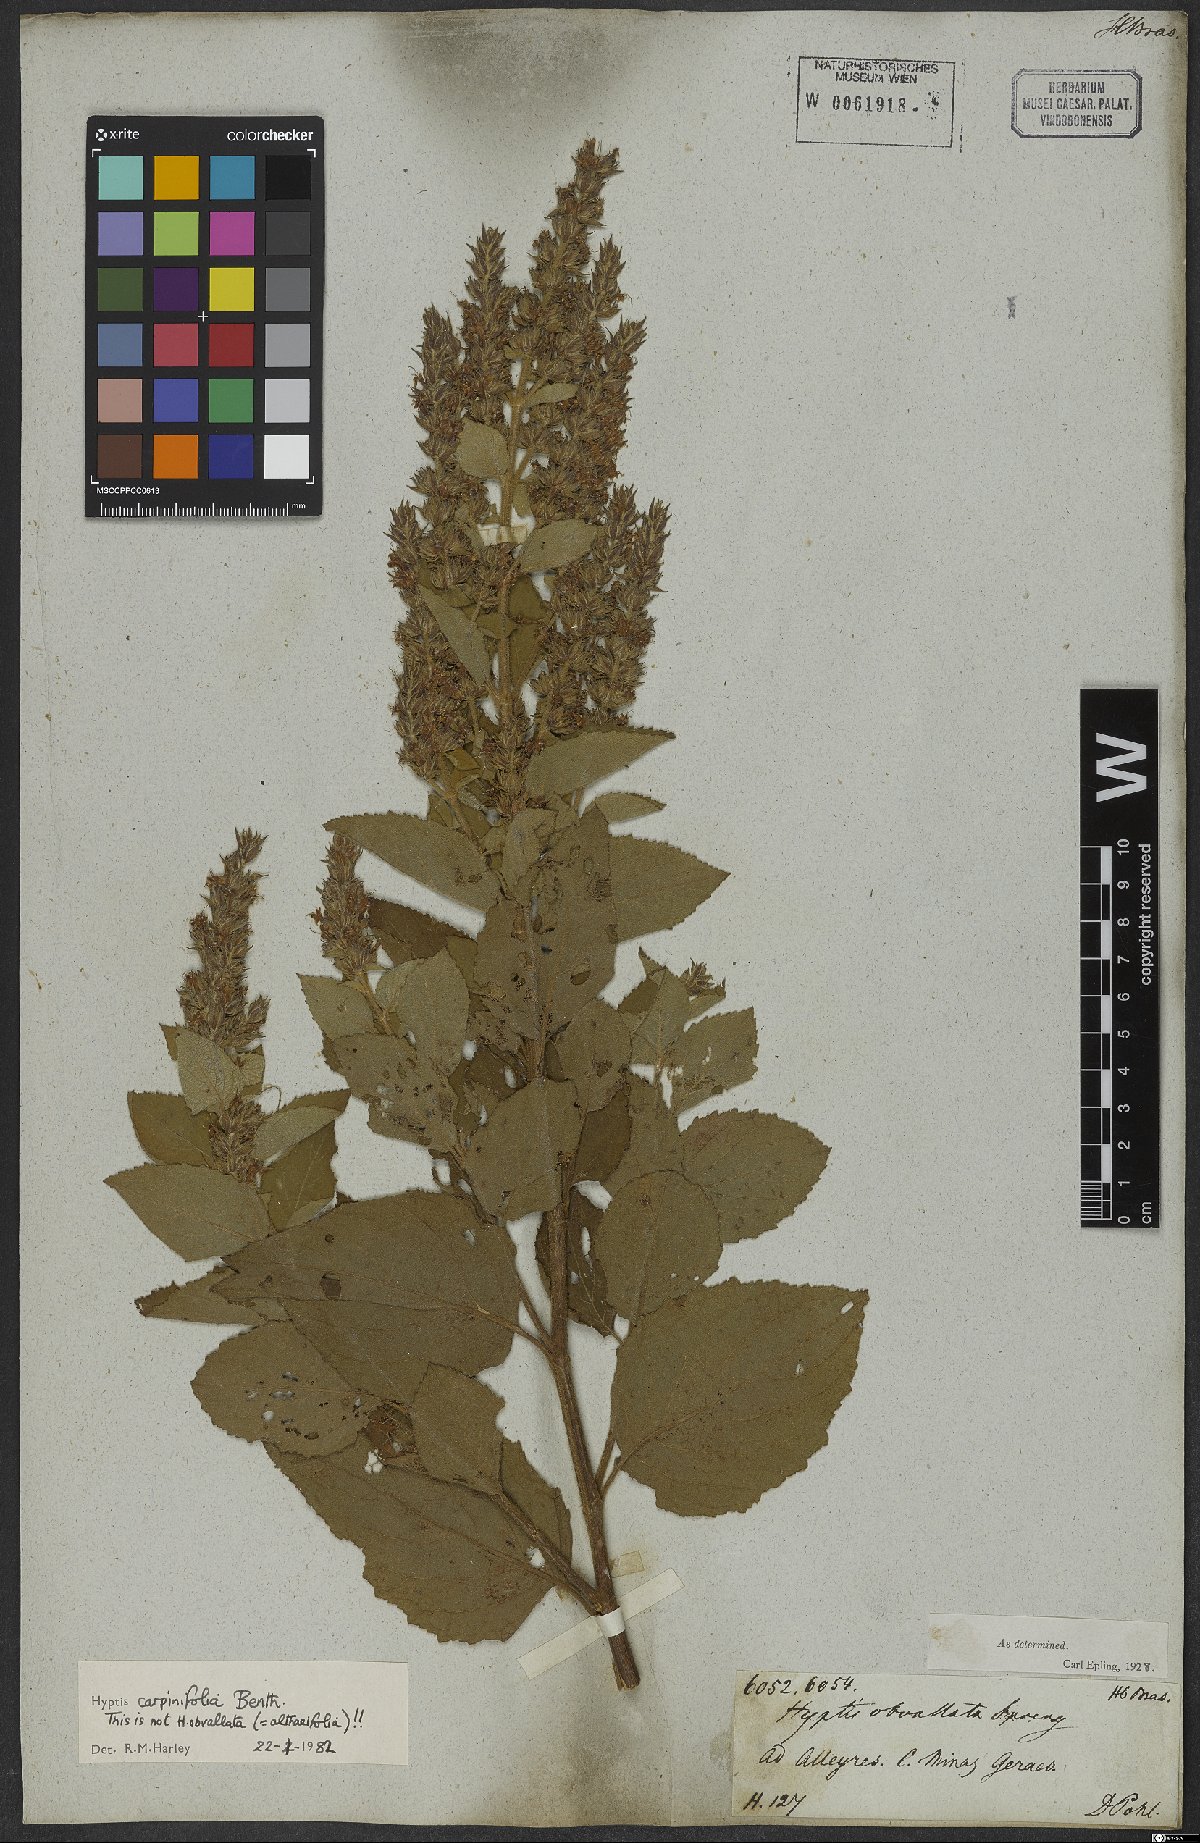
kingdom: Plantae
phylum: Tracheophyta
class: Magnoliopsida
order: Lamiales
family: Lamiaceae
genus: Cantinoa
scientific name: Cantinoa carpinifolia
